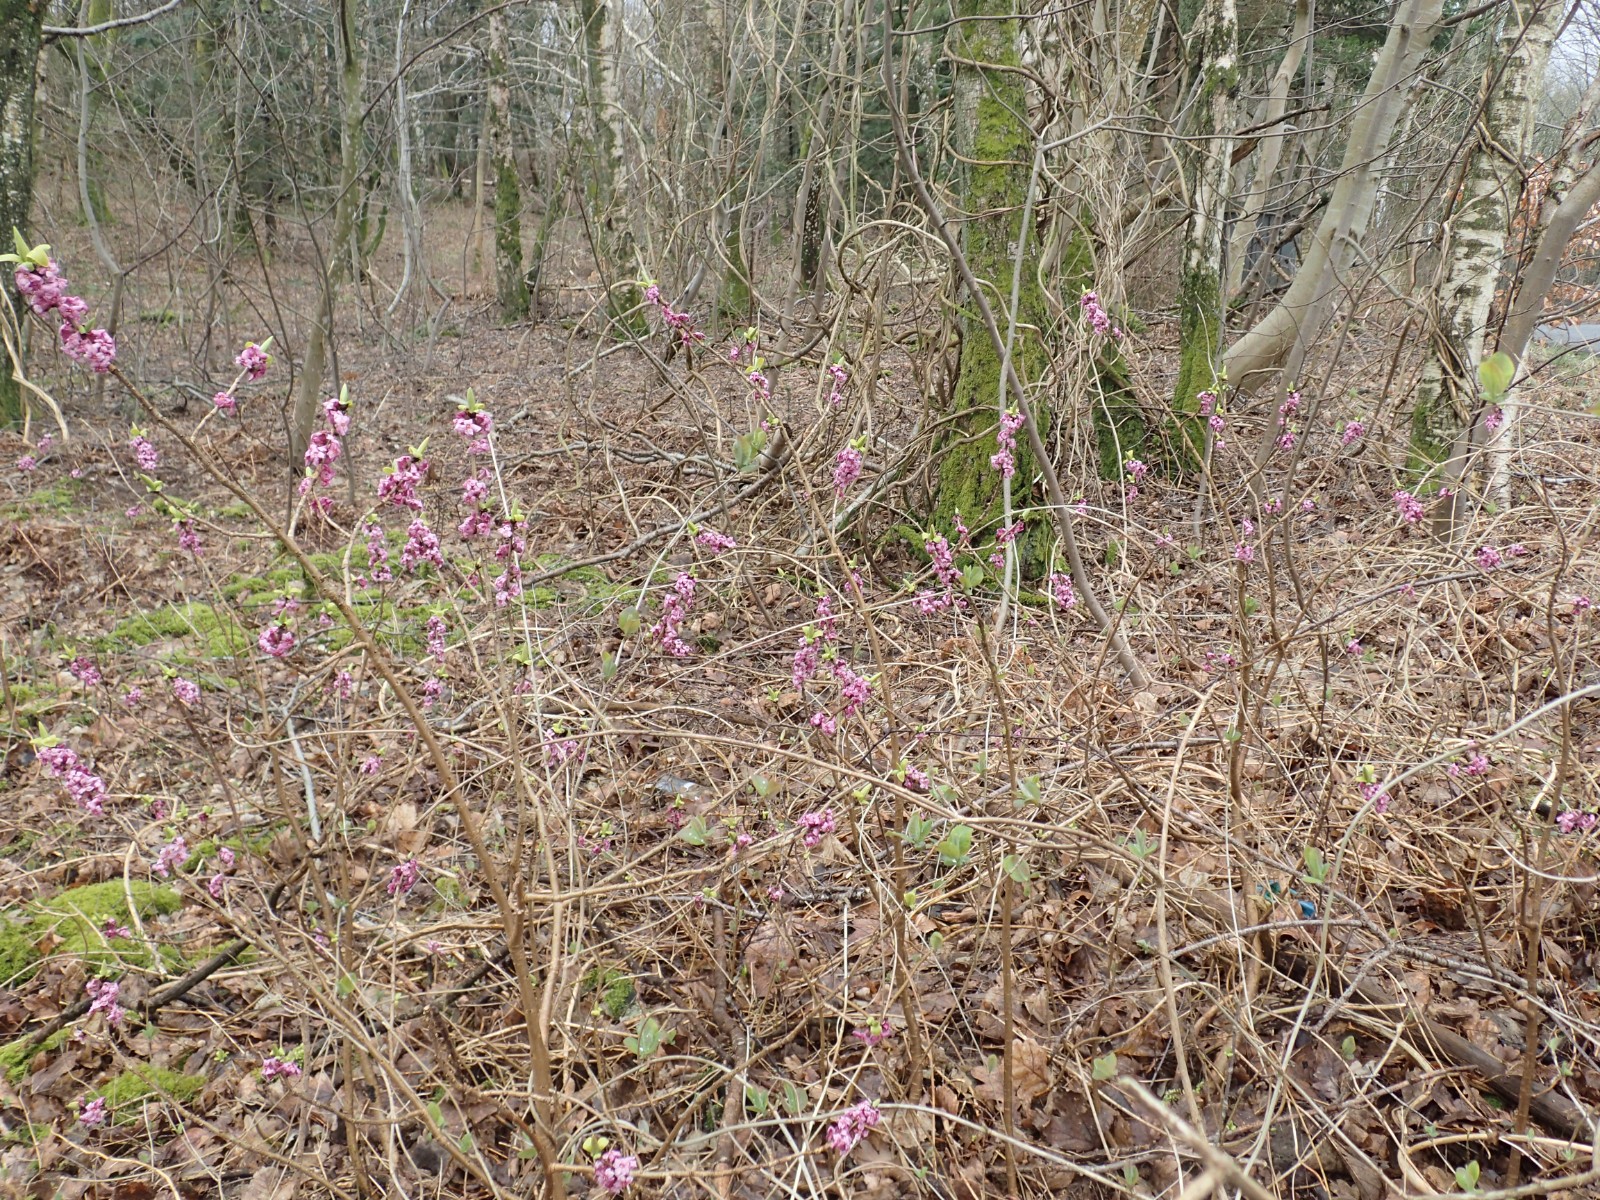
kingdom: Fungi
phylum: Basidiomycota
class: Agaricomycetes
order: Hymenochaetales
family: Hymenochaetaceae
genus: Phellinus
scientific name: Phellinus pomaceus
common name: blomme-ildporesvamp
